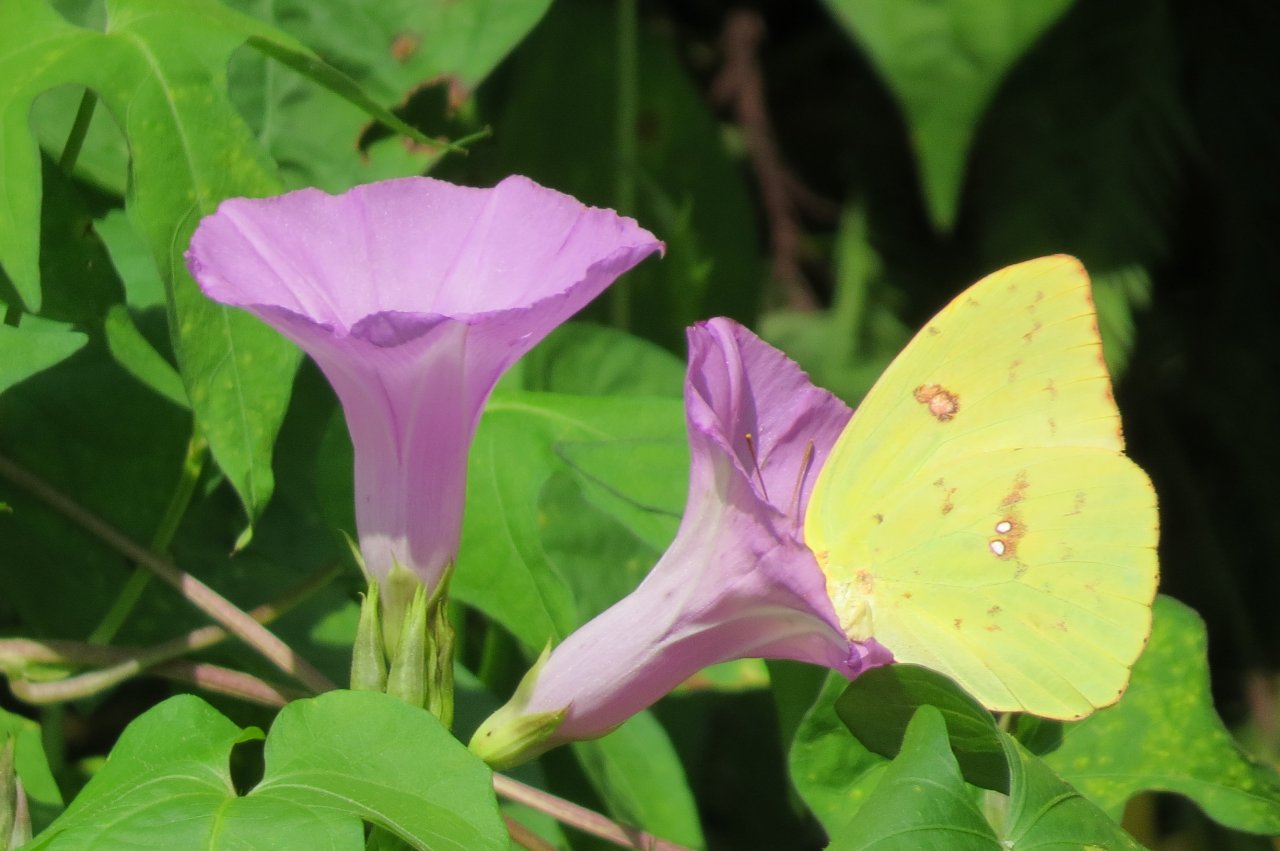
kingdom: Animalia
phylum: Arthropoda
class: Insecta
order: Lepidoptera
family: Pieridae
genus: Phoebis
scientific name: Phoebis sennae
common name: Cloudless Sulphur
